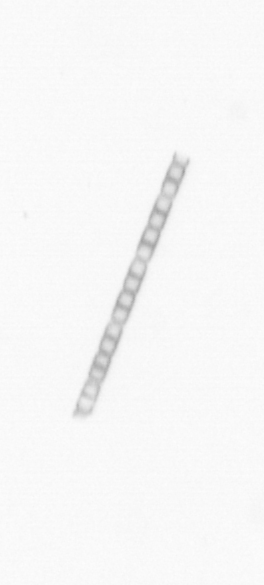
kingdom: Chromista
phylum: Ochrophyta
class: Bacillariophyceae
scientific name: Bacillariophyceae
